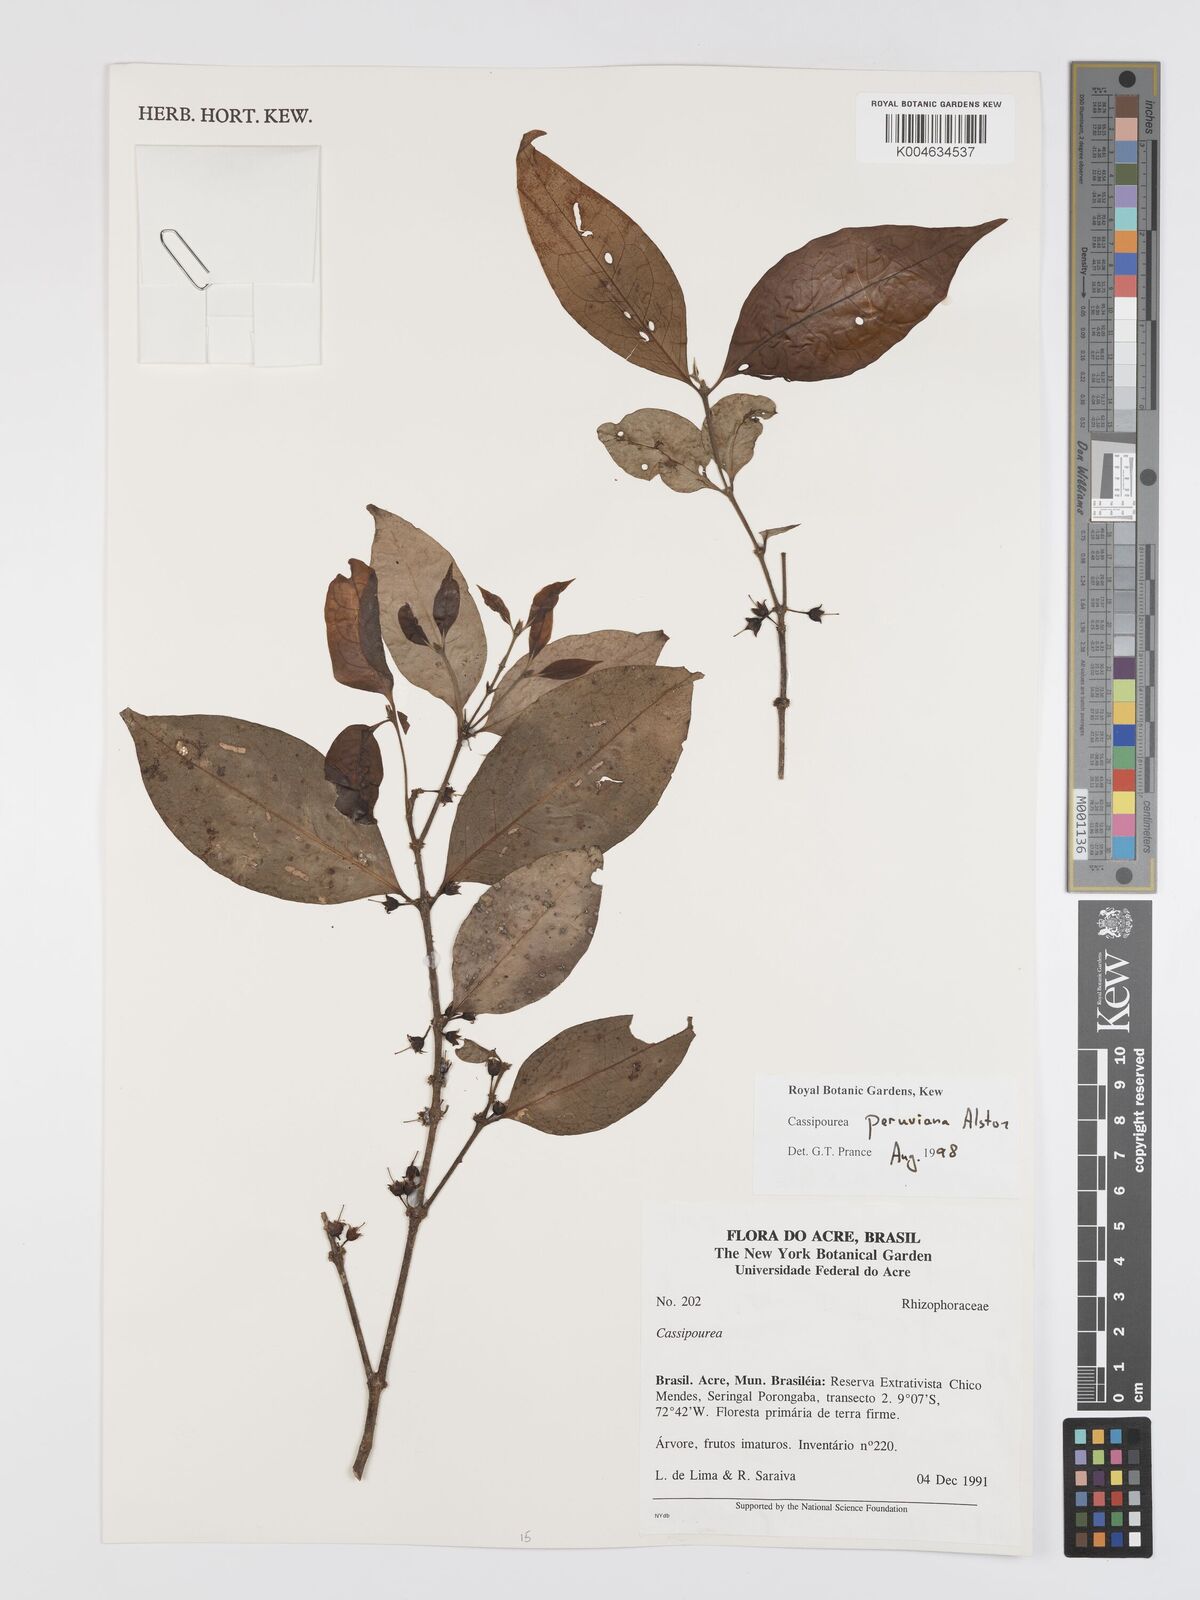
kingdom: Plantae
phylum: Tracheophyta
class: Magnoliopsida
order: Malpighiales
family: Rhizophoraceae
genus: Cassipourea
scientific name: Cassipourea peruviana
